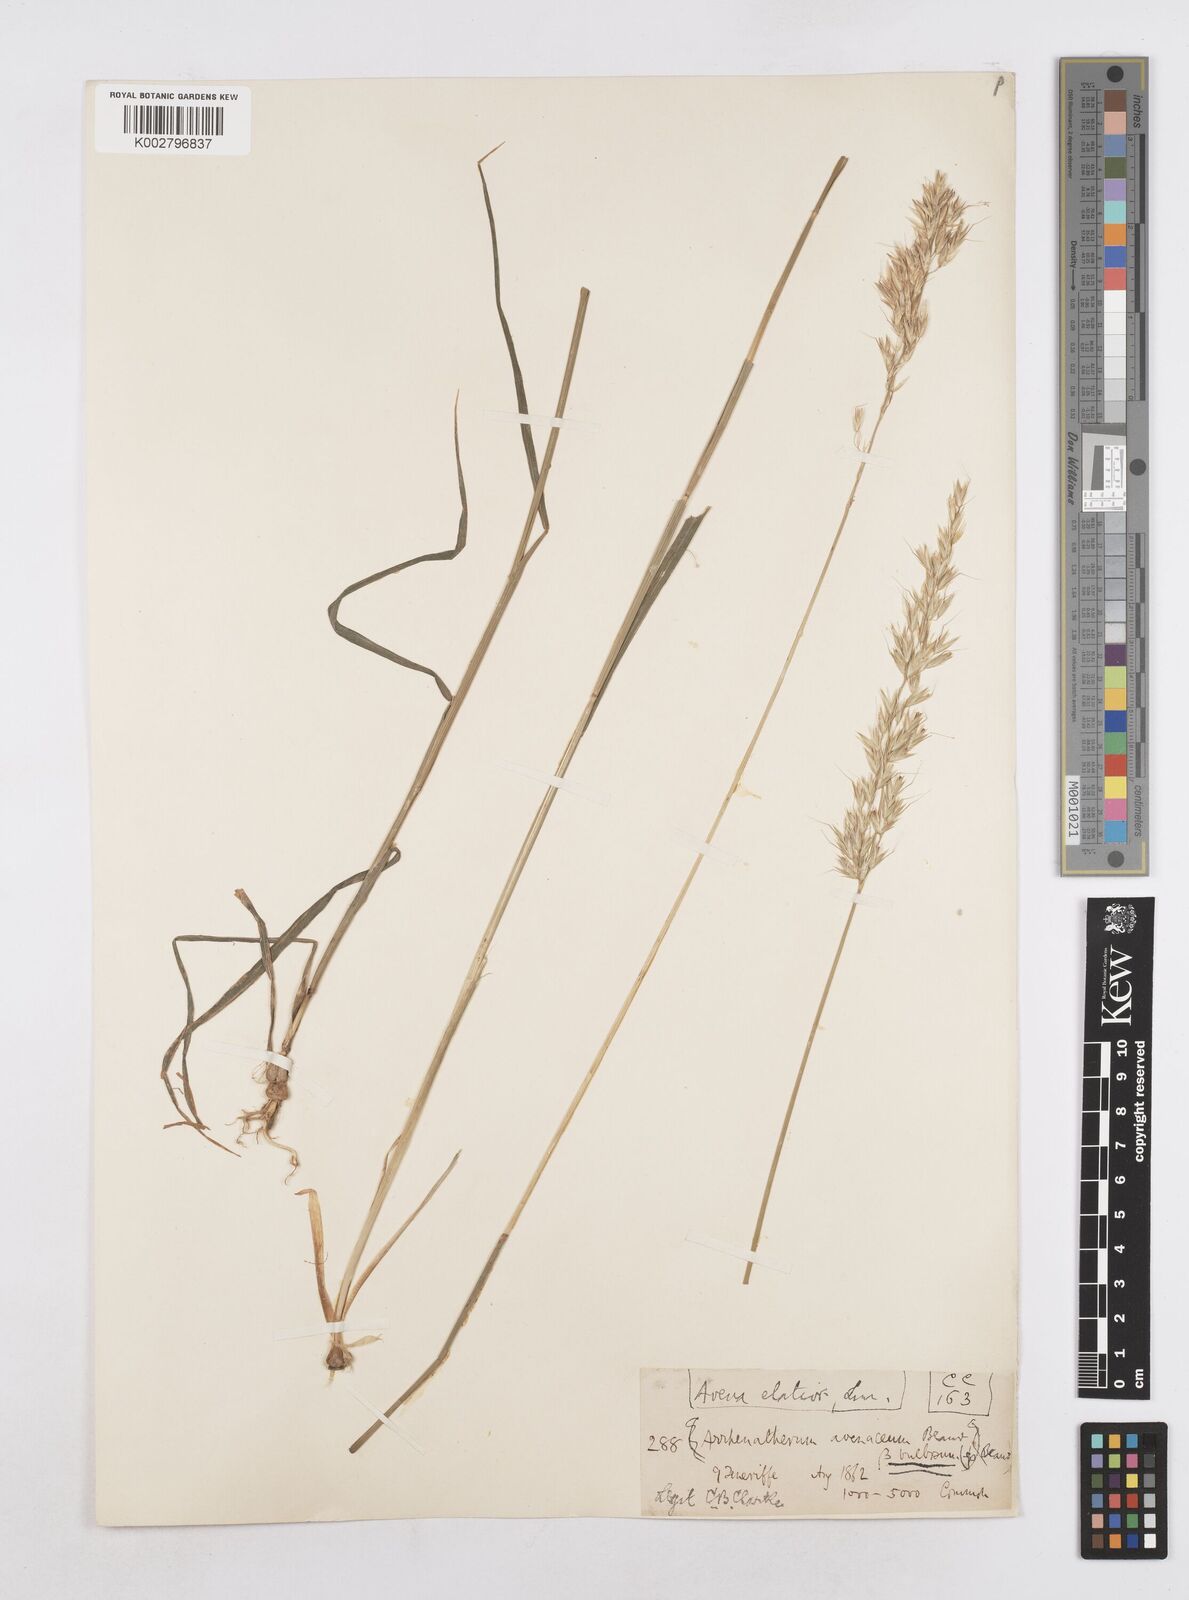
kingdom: Plantae
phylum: Tracheophyta
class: Liliopsida
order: Poales
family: Poaceae
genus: Arrhenatherum
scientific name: Arrhenatherum elatius
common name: Tall oatgrass
